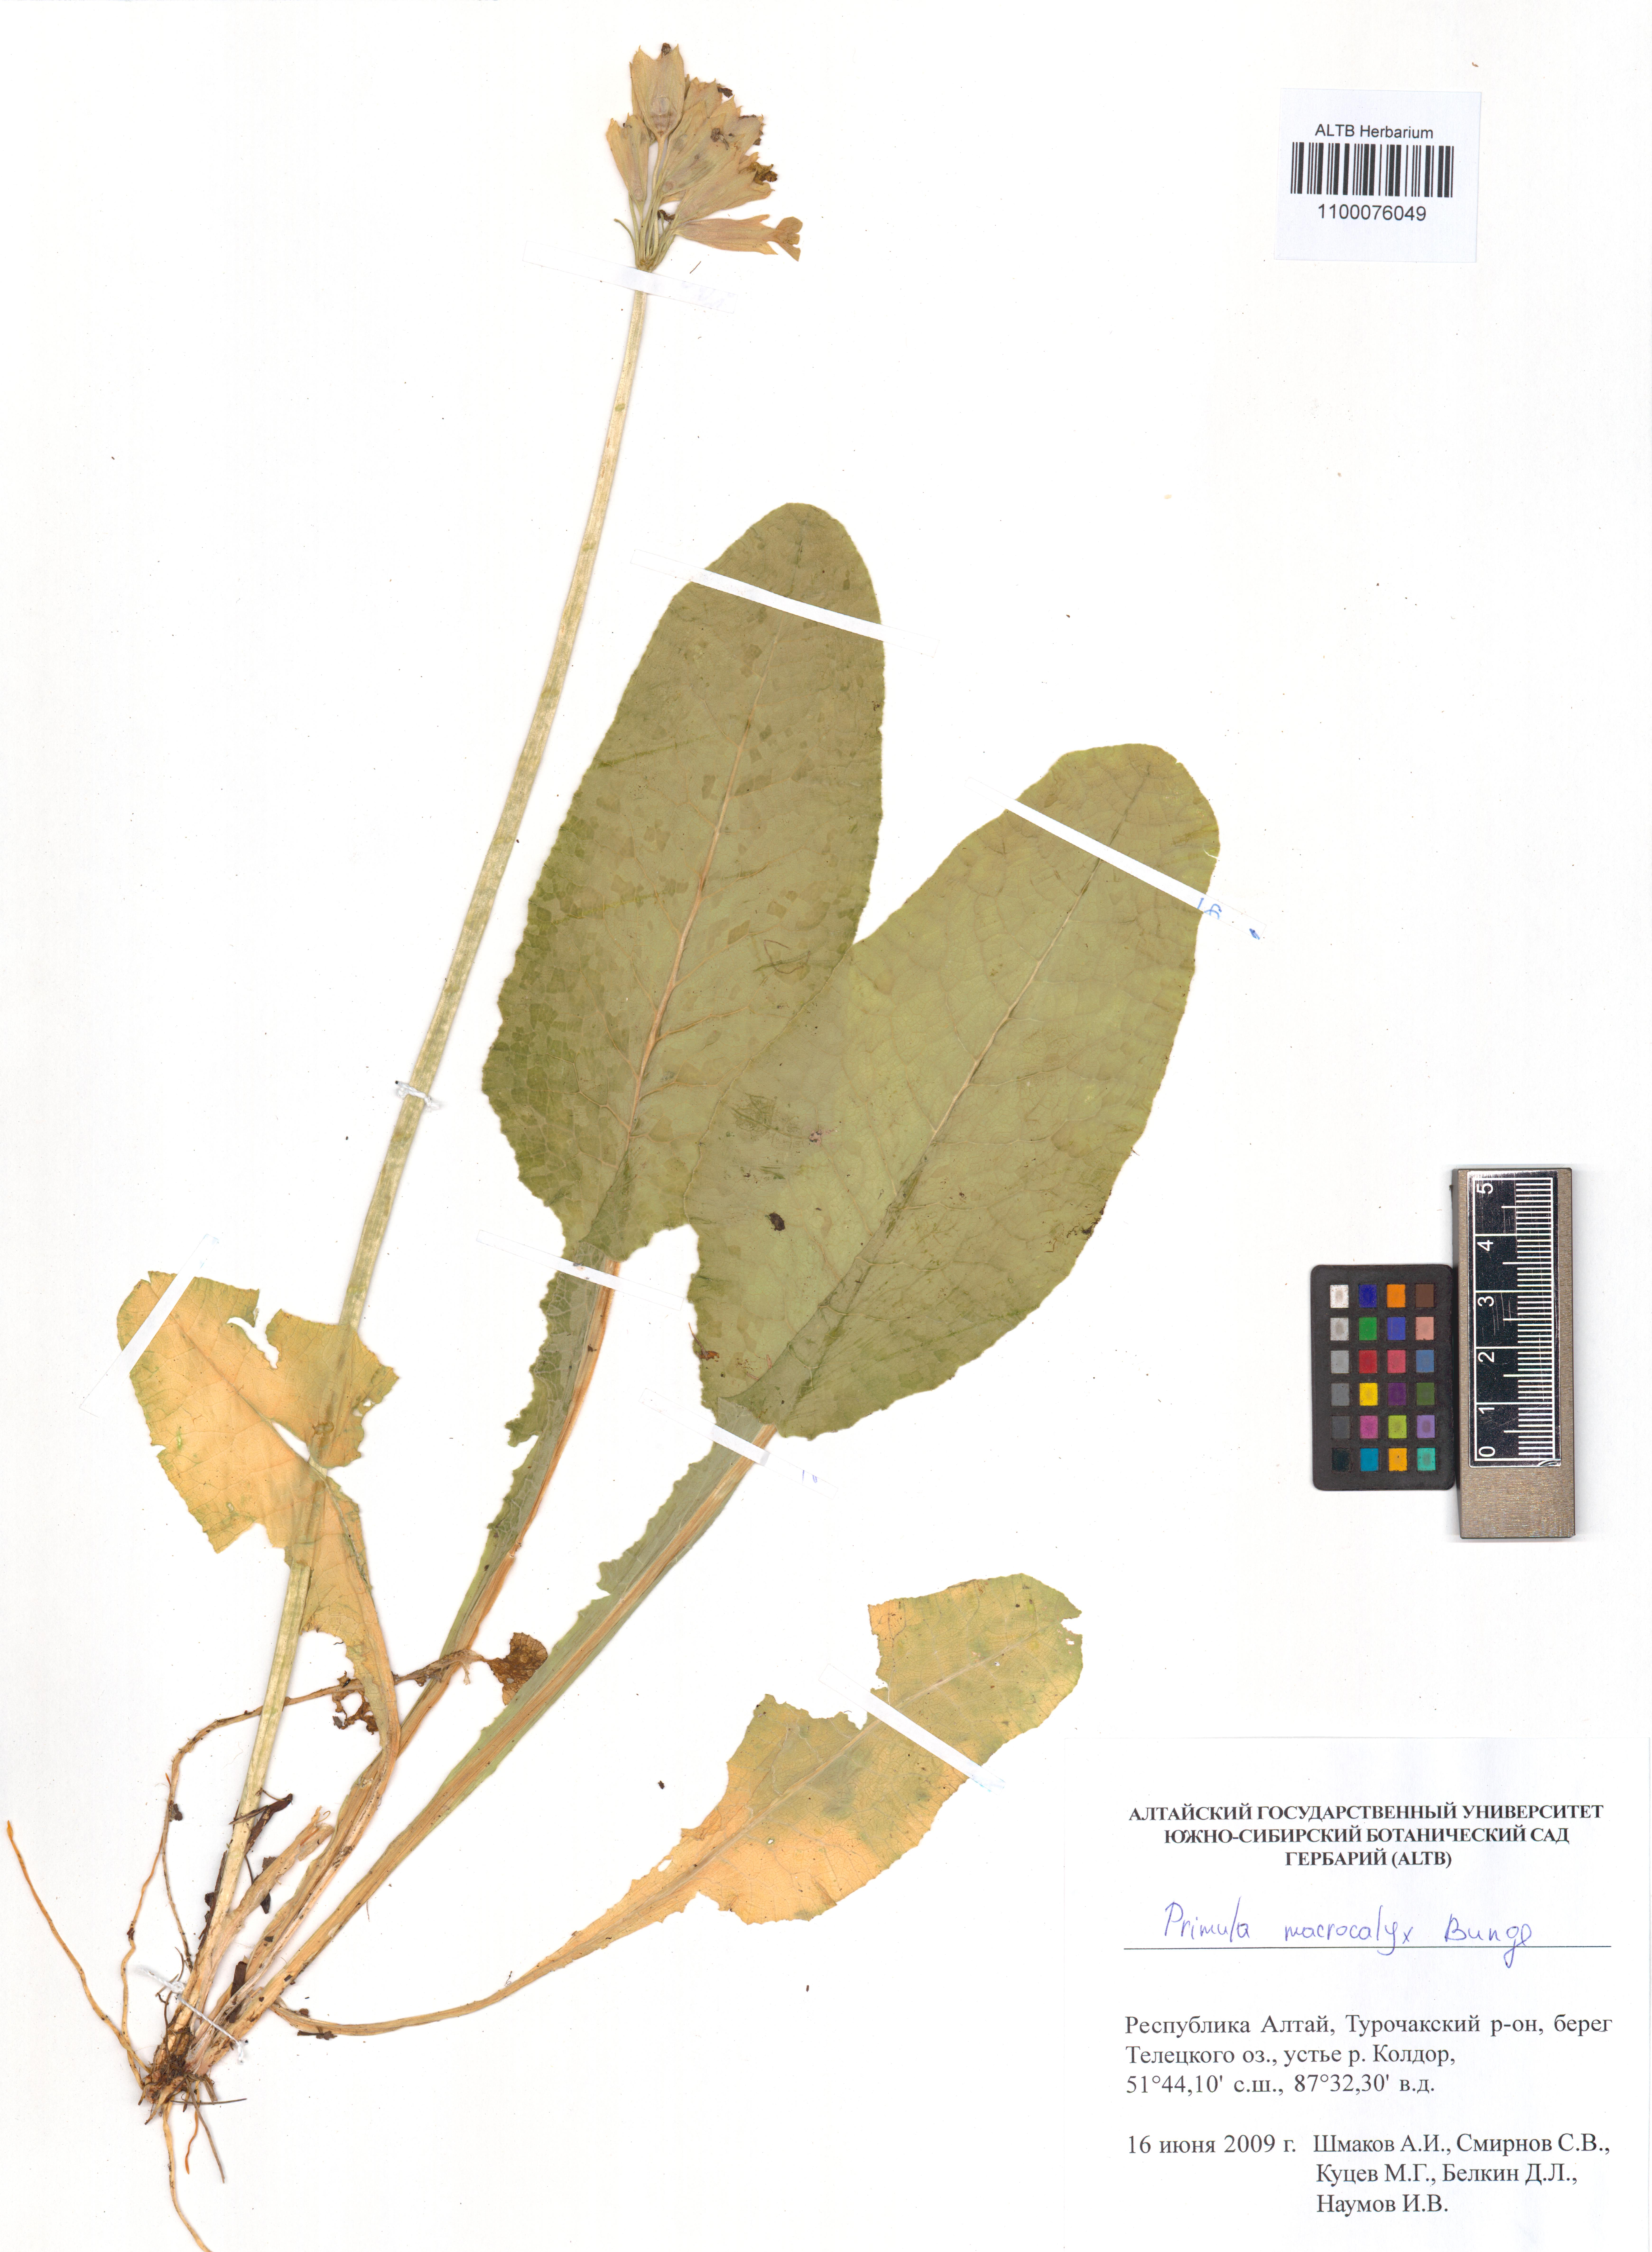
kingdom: Plantae
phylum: Tracheophyta
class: Magnoliopsida
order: Ericales
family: Primulaceae
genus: Primula
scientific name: Primula veris
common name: Cowslip
